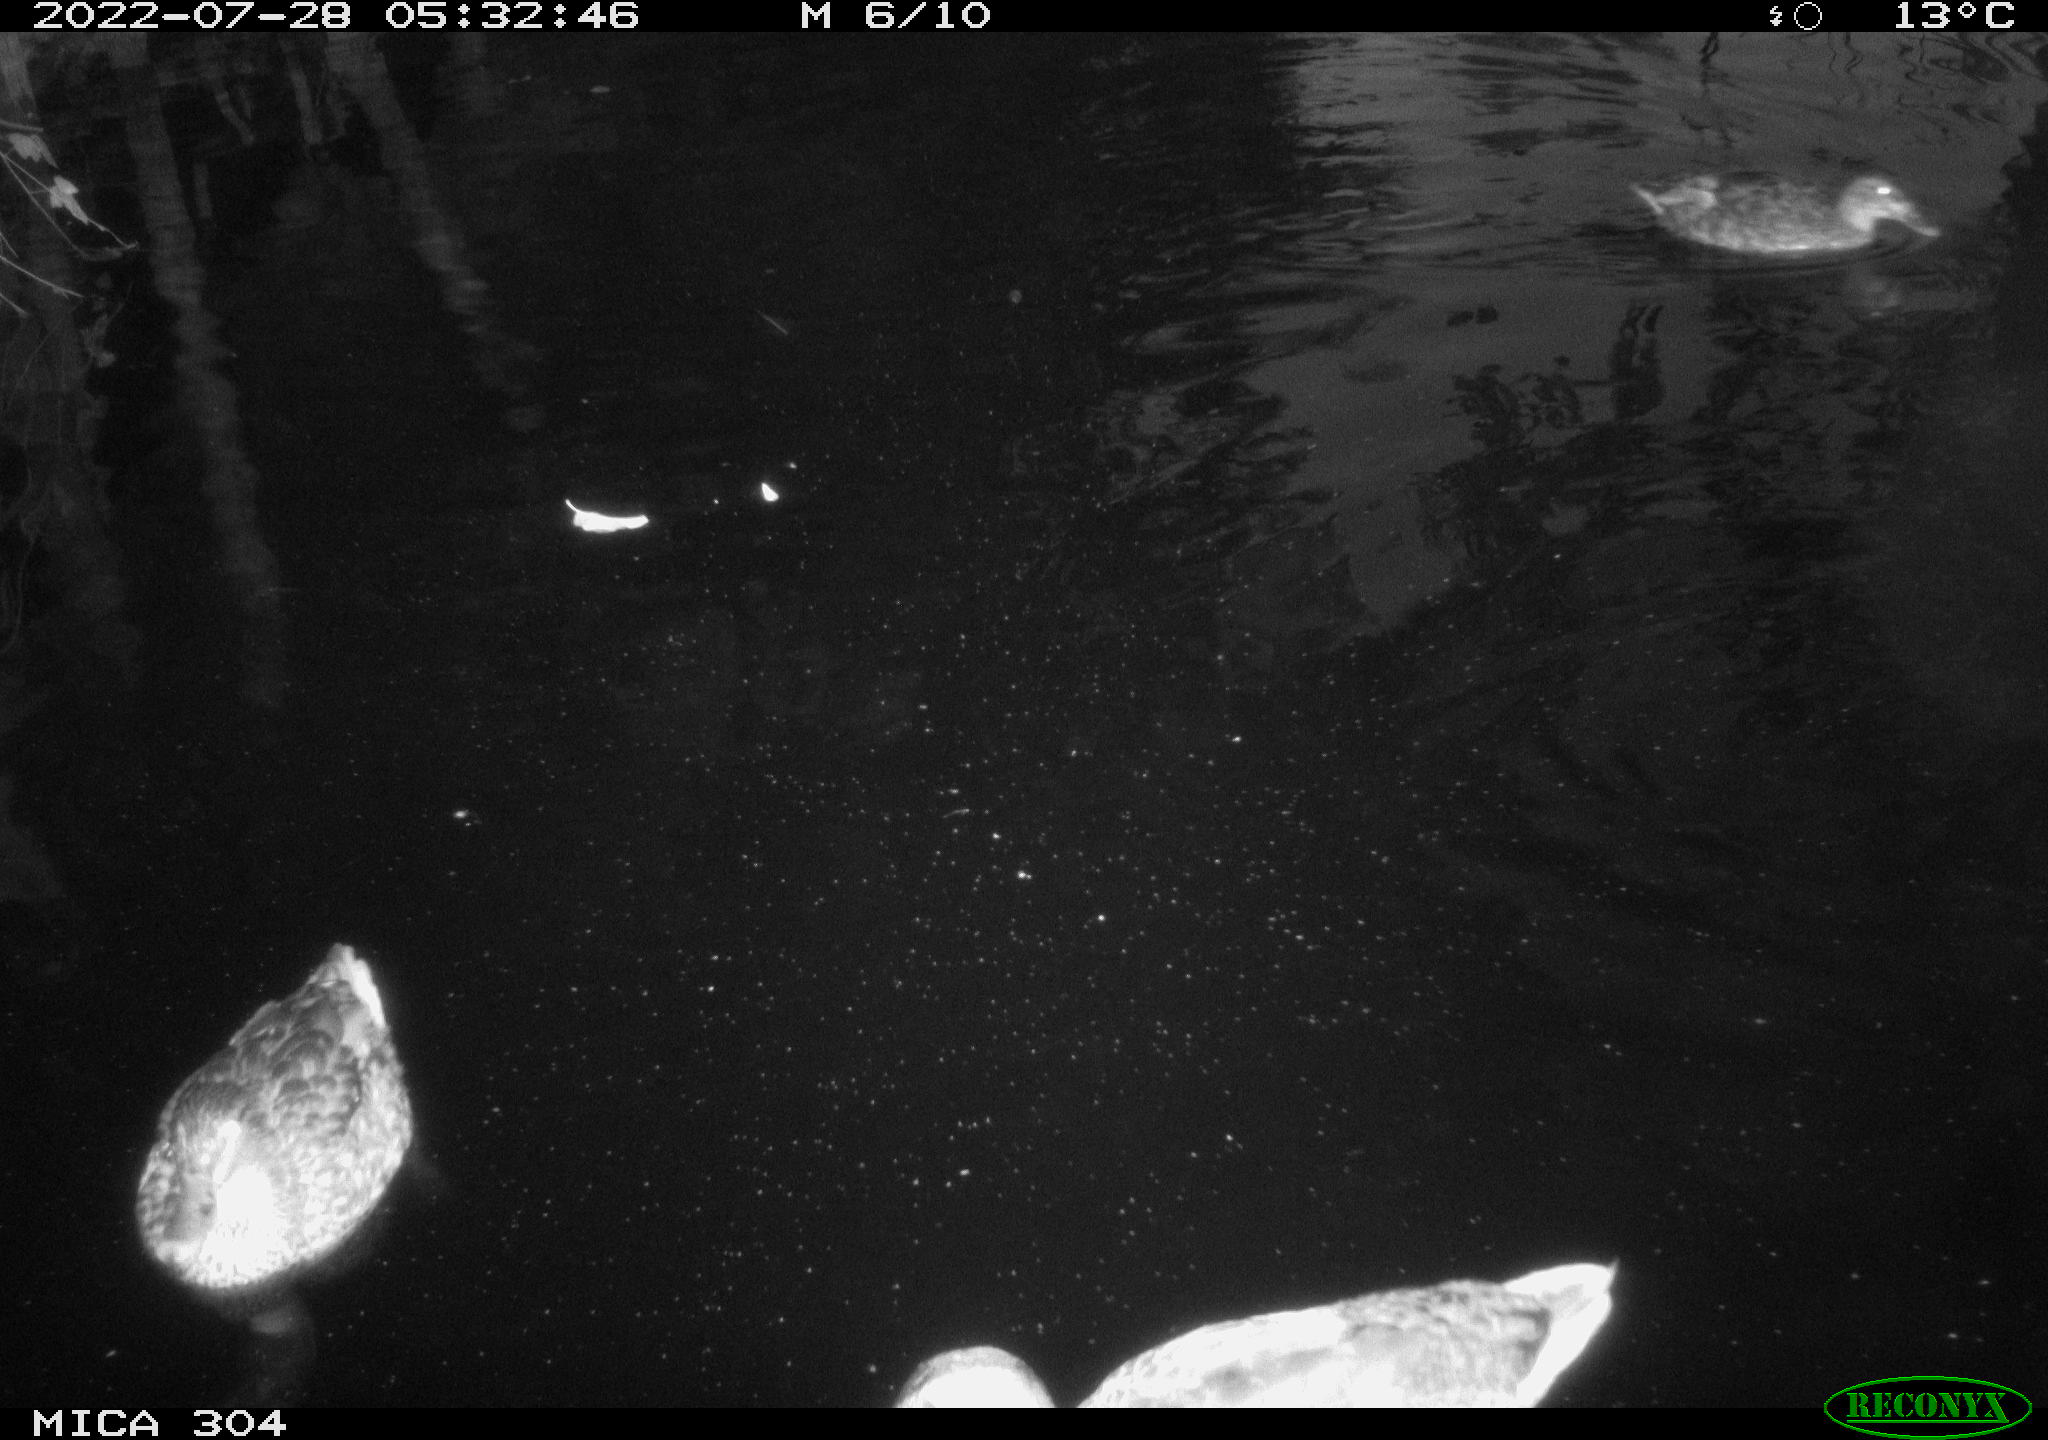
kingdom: Animalia
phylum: Chordata
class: Aves
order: Anseriformes
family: Anatidae
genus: Anas
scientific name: Anas platyrhynchos
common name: Mallard
